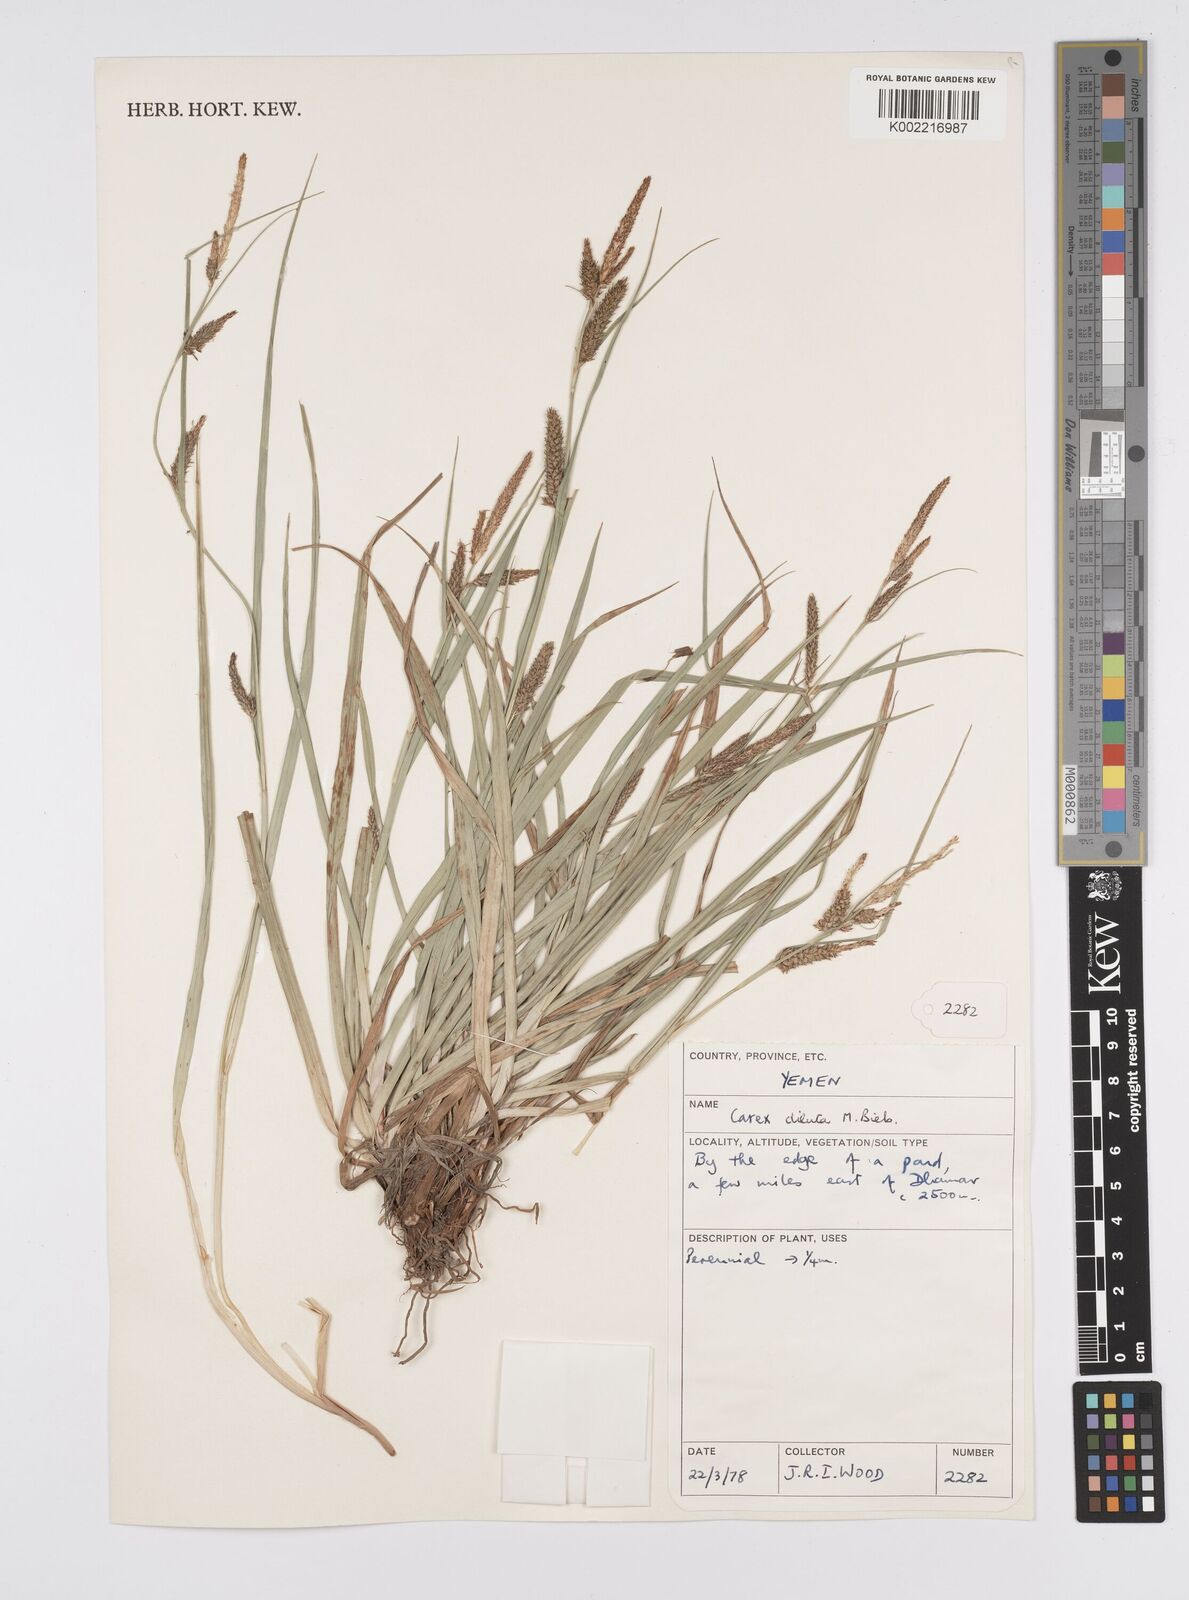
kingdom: Plantae
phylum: Tracheophyta
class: Liliopsida
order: Poales
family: Cyperaceae
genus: Carex
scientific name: Carex distans
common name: Distant sedge
